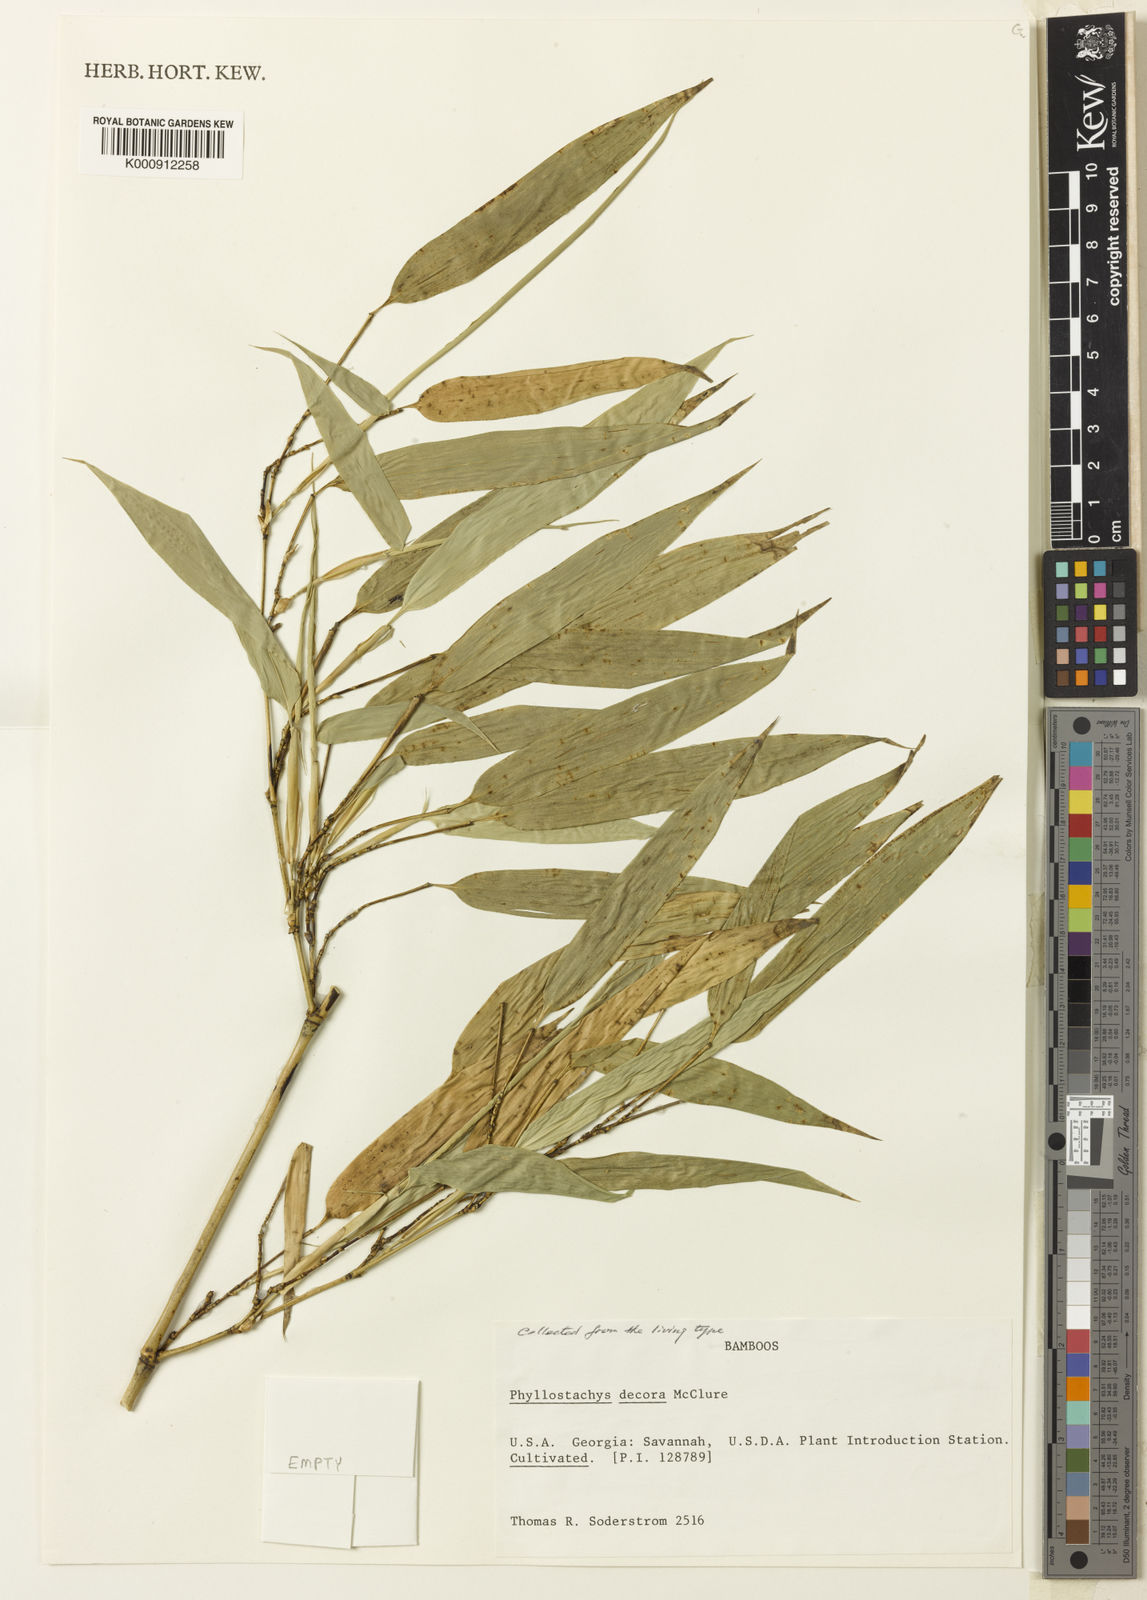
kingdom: Plantae
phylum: Tracheophyta
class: Liliopsida
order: Poales
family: Poaceae
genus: Phyllostachys
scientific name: Phyllostachys mannii
